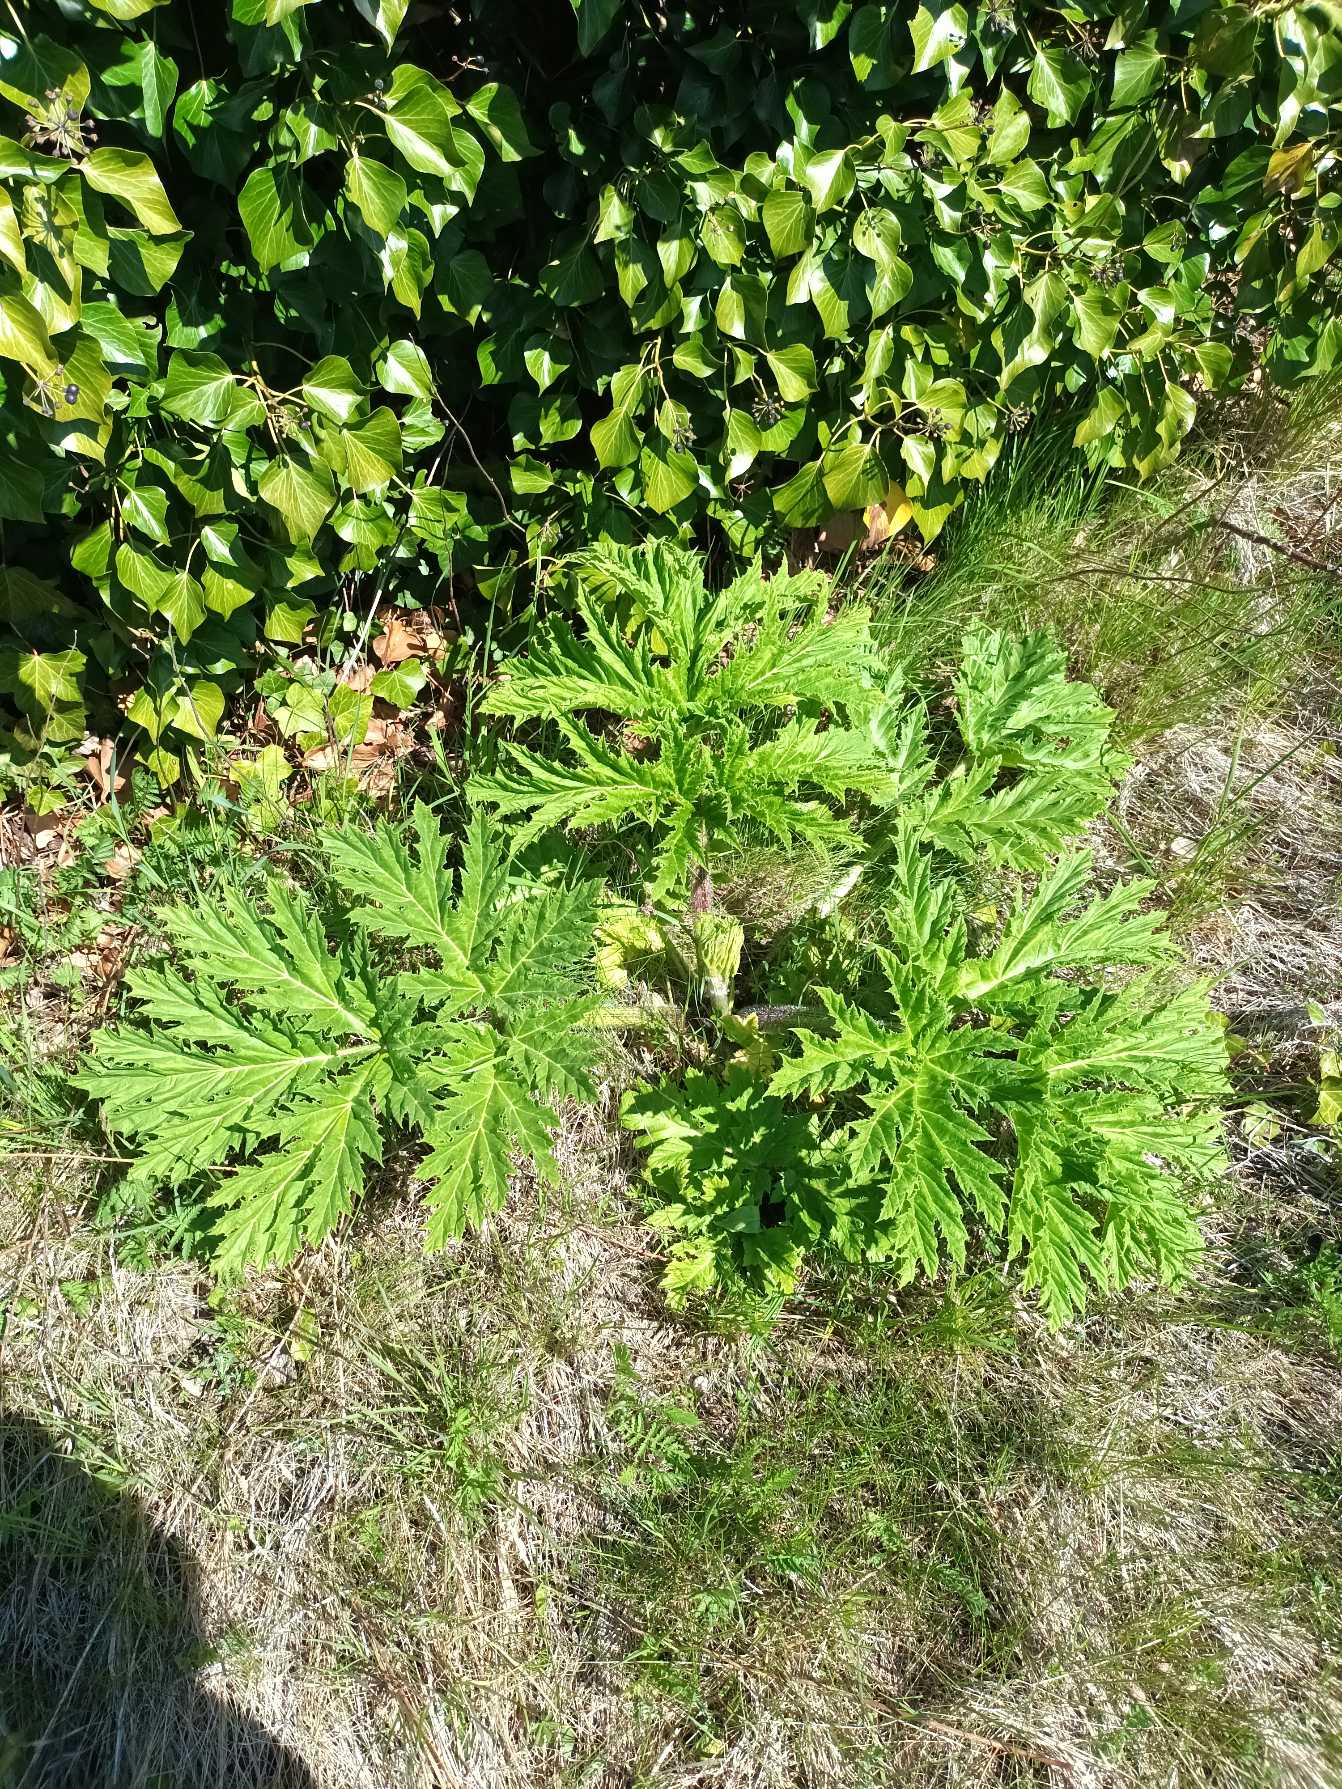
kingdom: Plantae
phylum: Tracheophyta
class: Magnoliopsida
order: Apiales
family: Apiaceae
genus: Heracleum
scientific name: Heracleum mantegazzianum
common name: Kæmpe-bjørneklo
